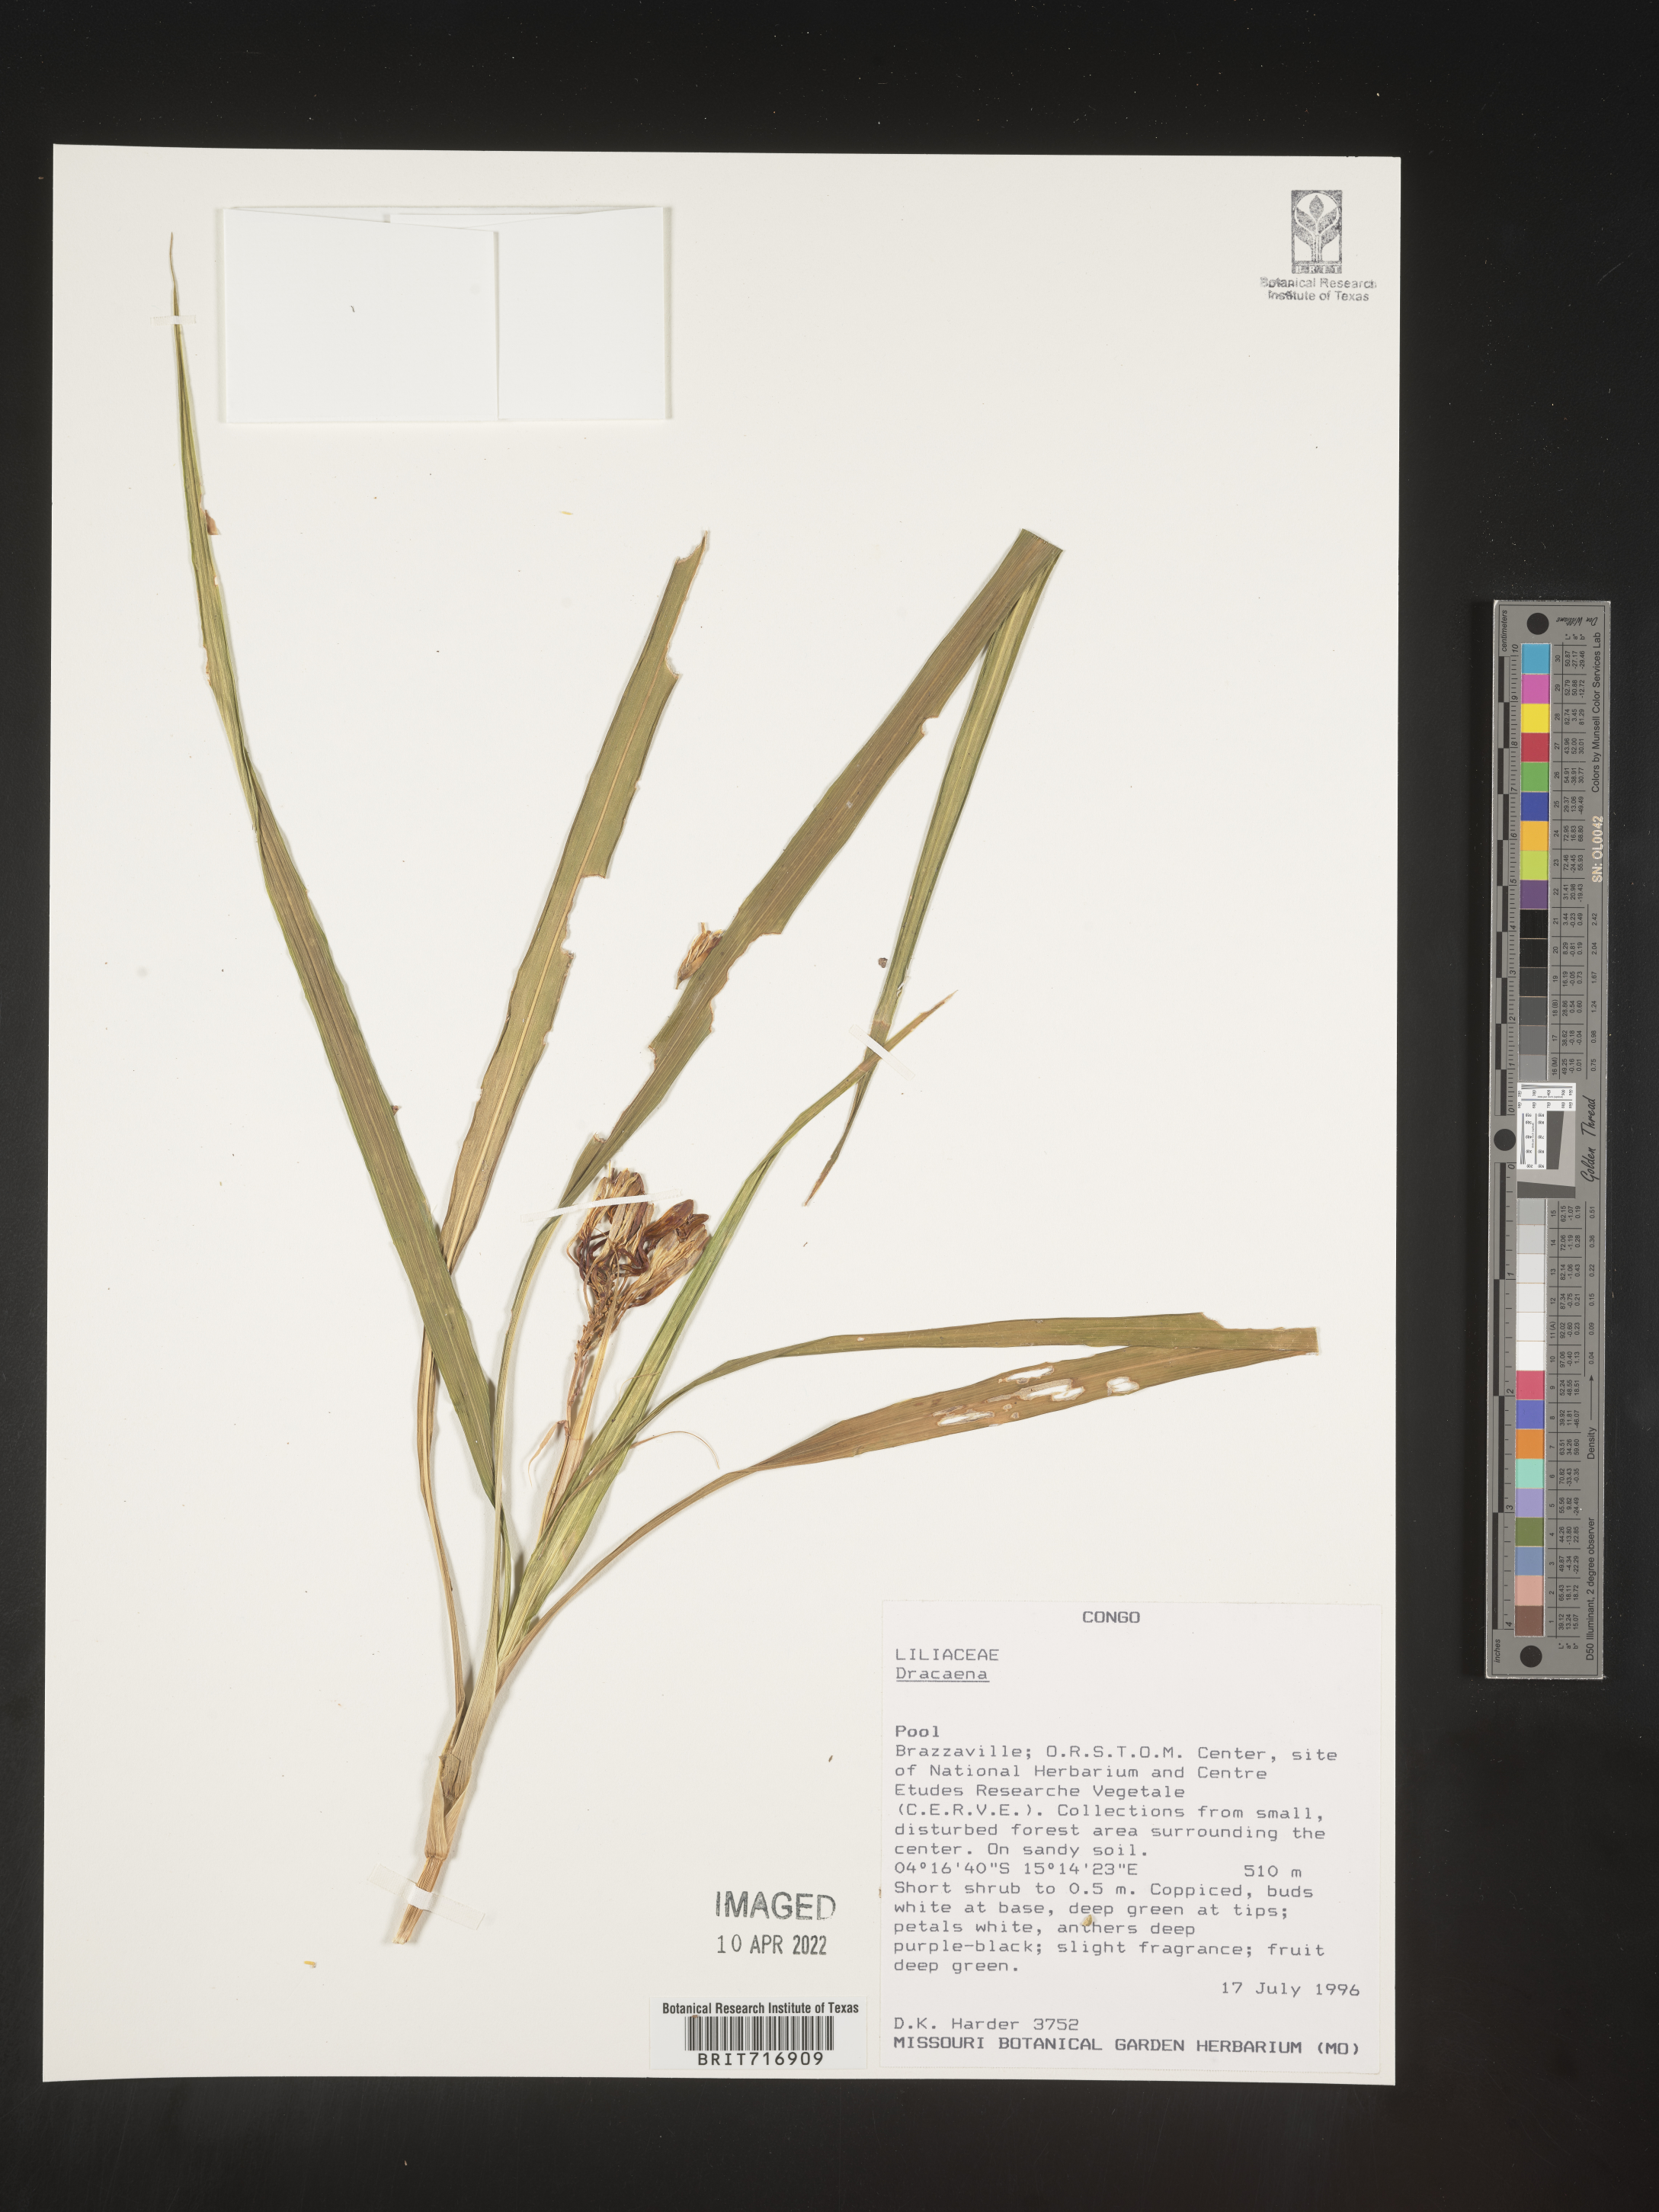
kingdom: Plantae
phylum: Tracheophyta
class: Liliopsida
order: Asparagales
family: Asparagaceae
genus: Dracaena
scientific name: Dracaena
